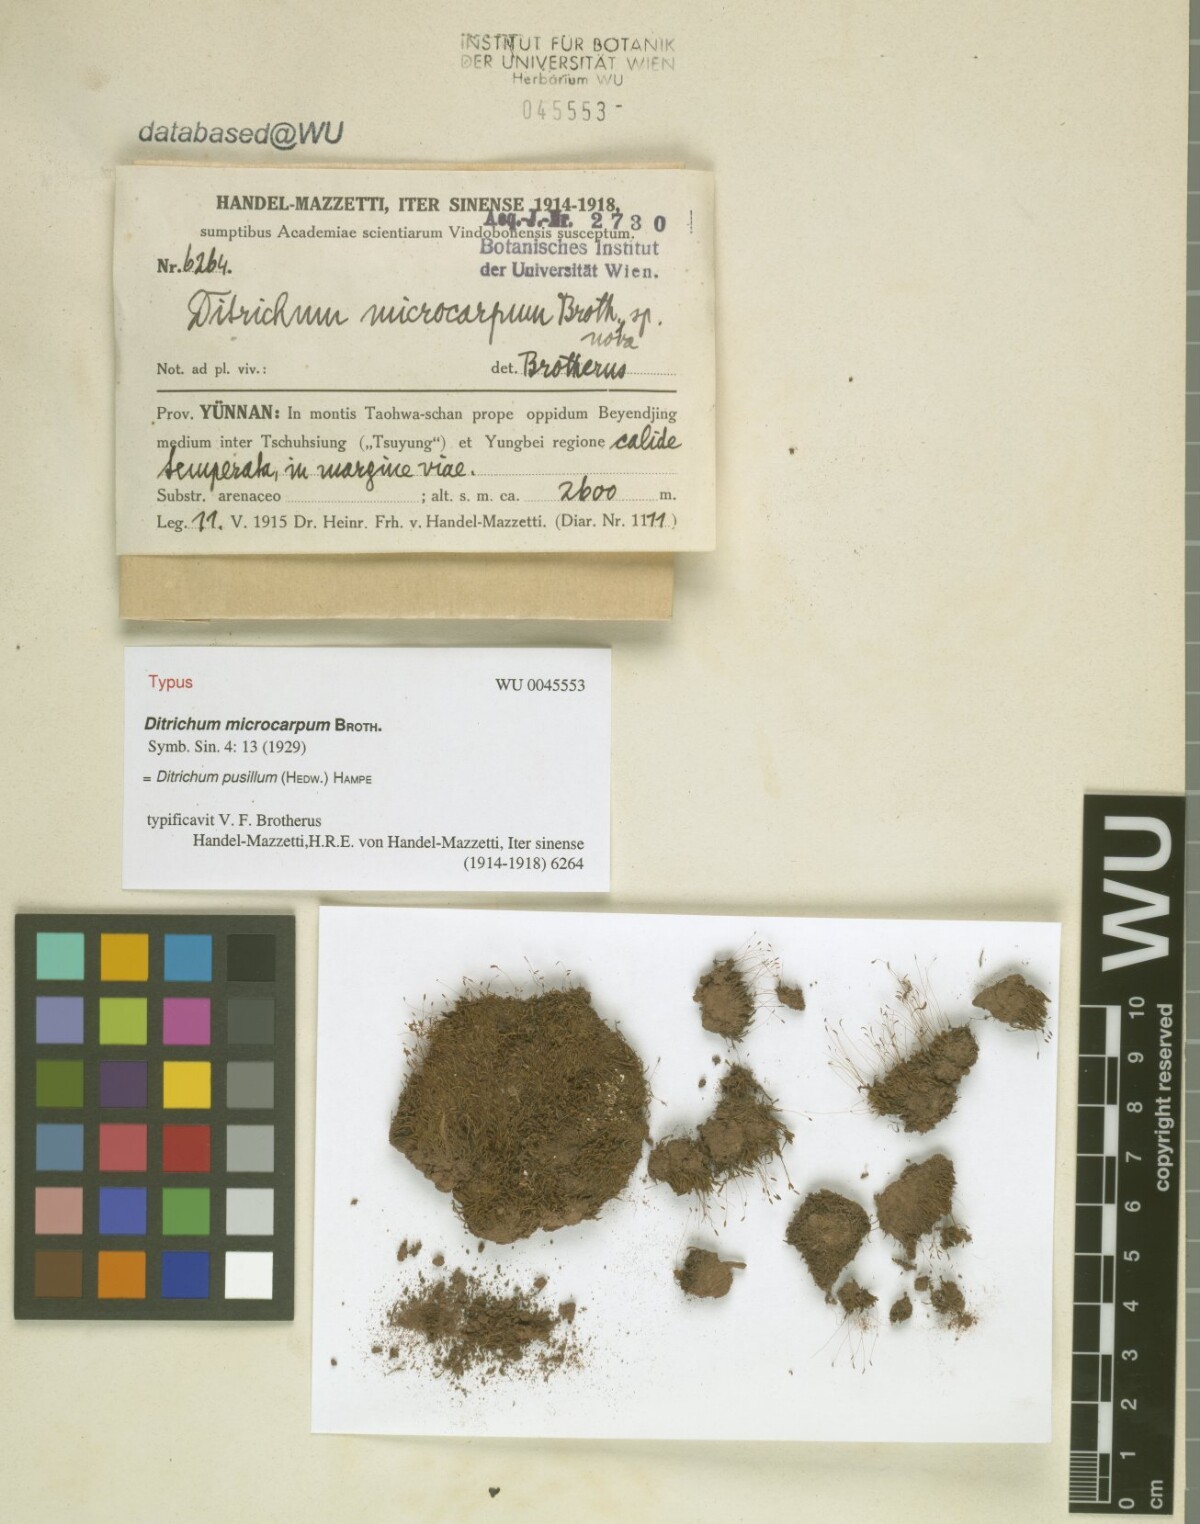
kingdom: Plantae
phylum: Bryophyta
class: Bryopsida
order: Dicranales
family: Ditrichaceae
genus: Ditrichum
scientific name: Ditrichum pusillum
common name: Brown cow-hair moss
